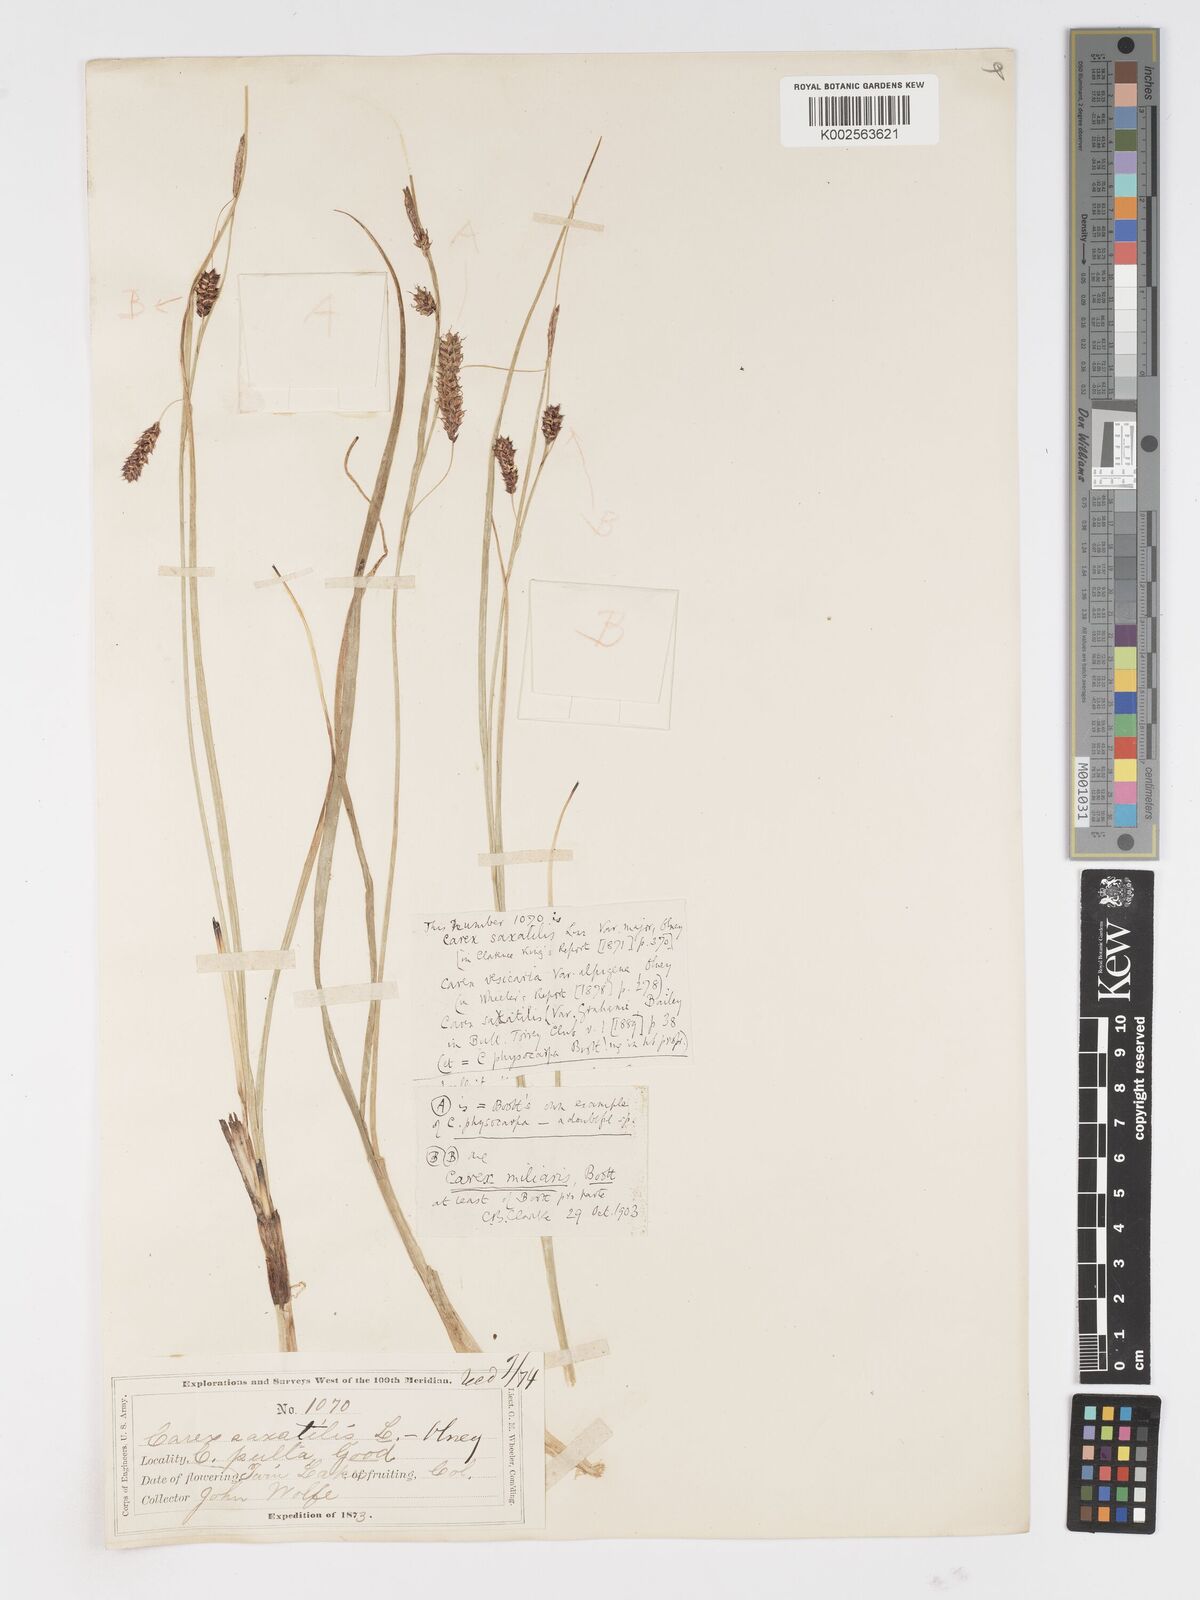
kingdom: Plantae
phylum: Tracheophyta
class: Liliopsida
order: Poales
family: Cyperaceae
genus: Carex
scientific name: Carex
